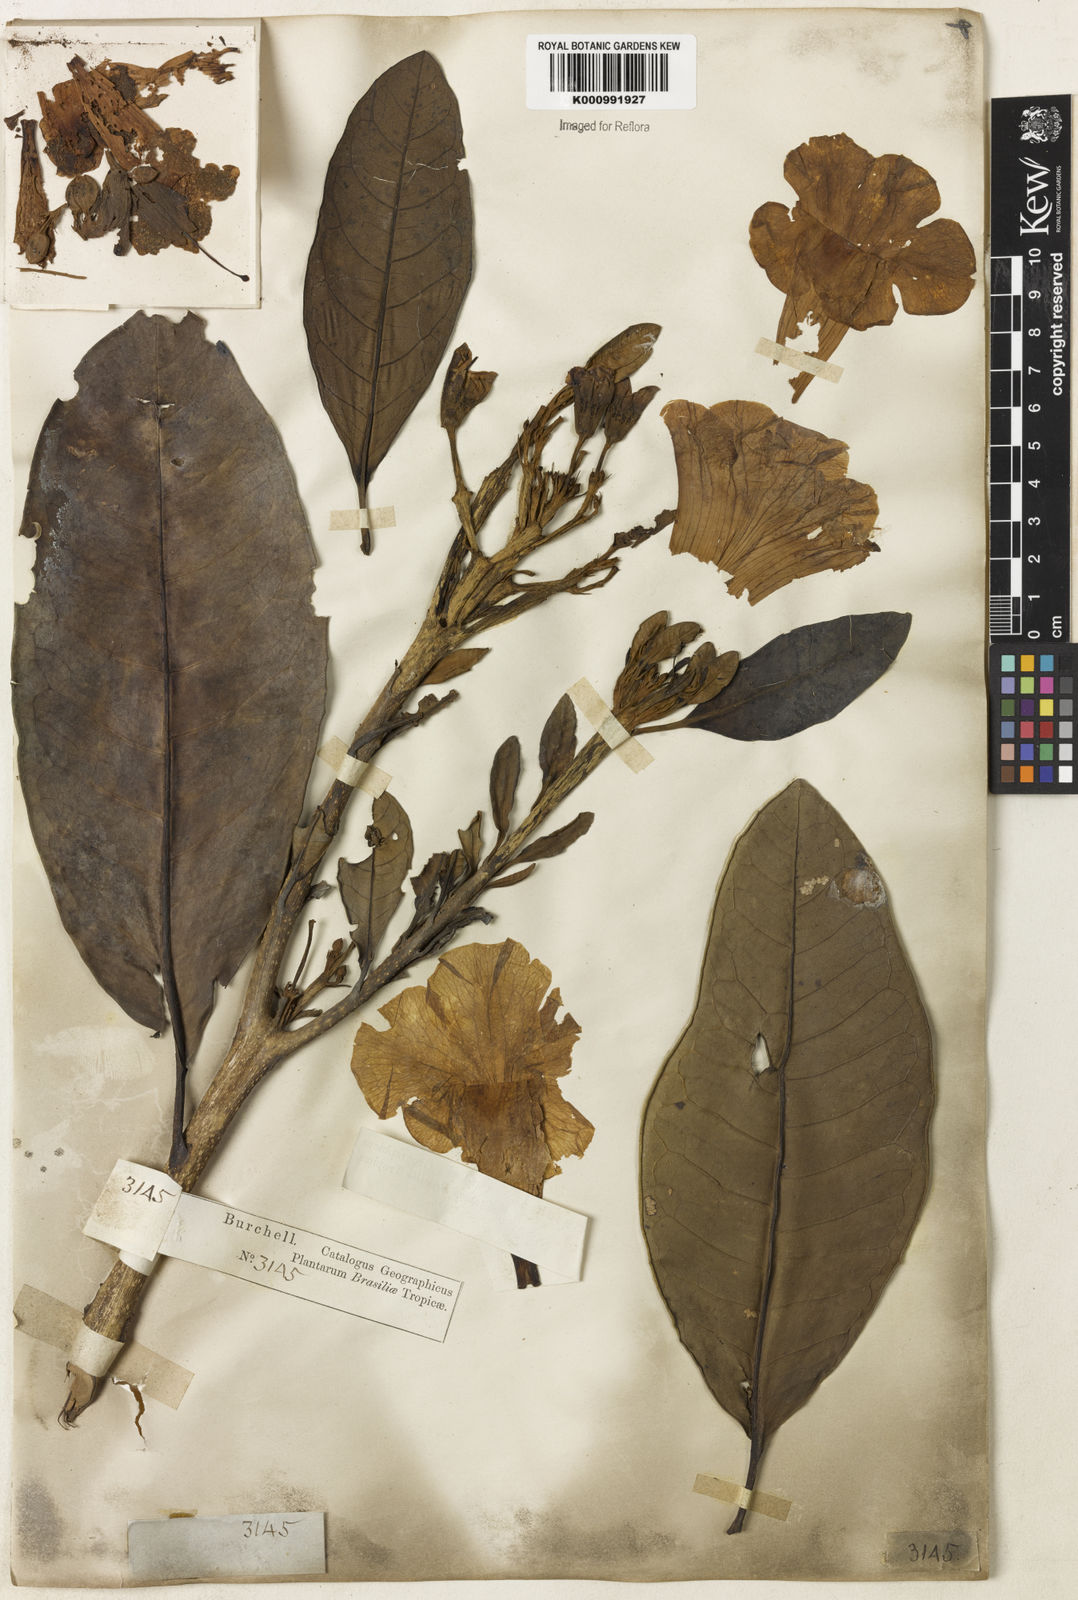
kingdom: Plantae
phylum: Tracheophyta
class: Magnoliopsida
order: Lamiales
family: Bignoniaceae
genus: Tabebuia
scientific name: Tabebuia cassinoides
